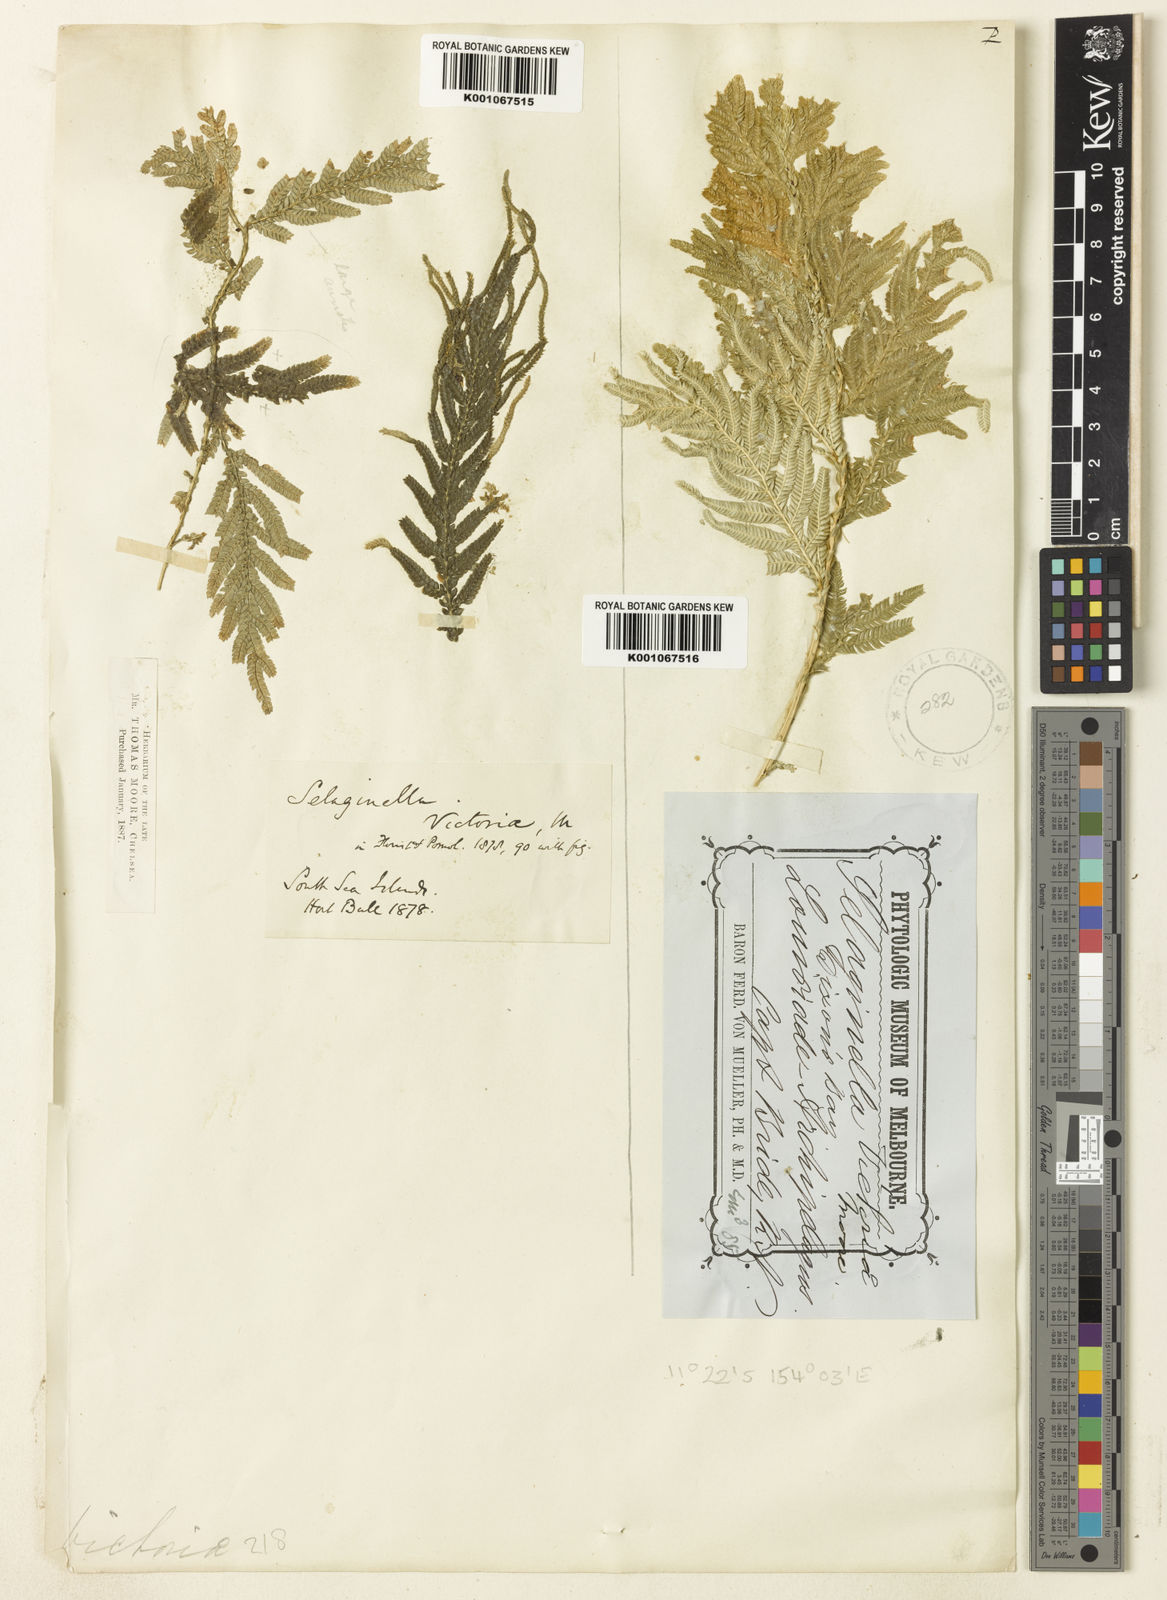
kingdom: Plantae
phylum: Tracheophyta
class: Lycopodiopsida
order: Selaginellales
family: Selaginellaceae
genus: Selaginella
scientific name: Selaginella
